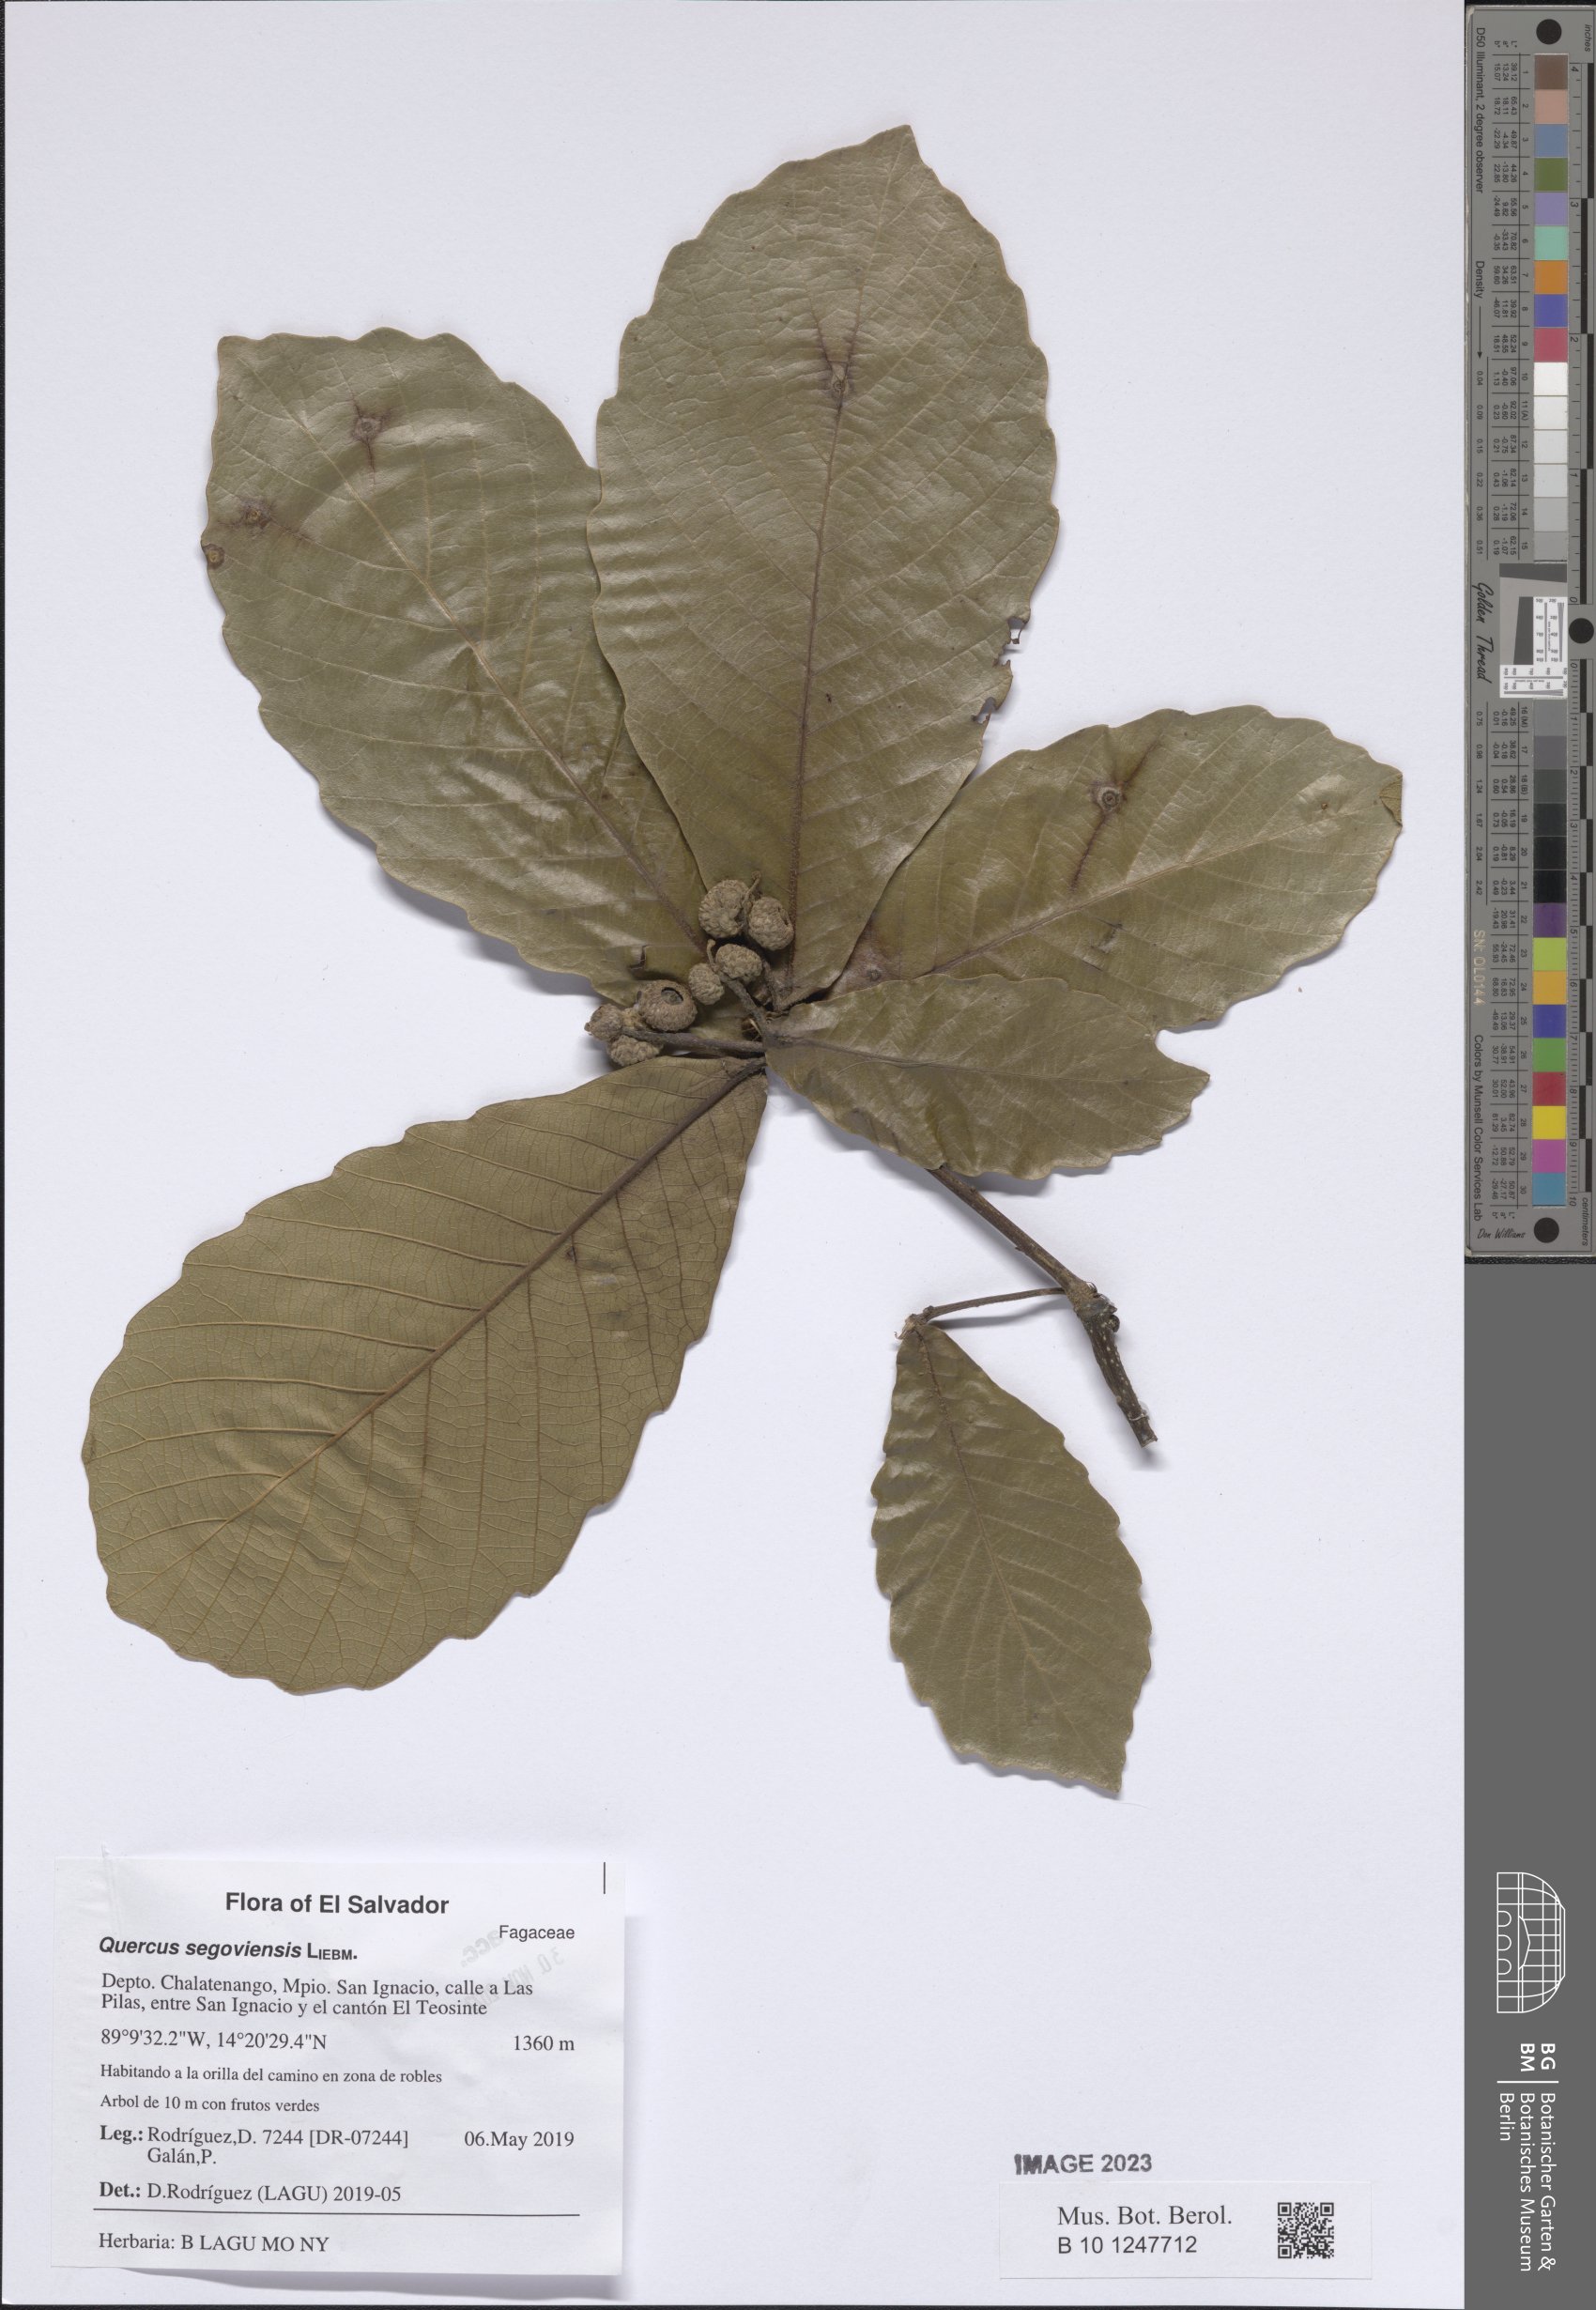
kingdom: Plantae
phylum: Tracheophyta
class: Magnoliopsida
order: Fagales
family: Fagaceae
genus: Quercus
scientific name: Quercus segoviensis
